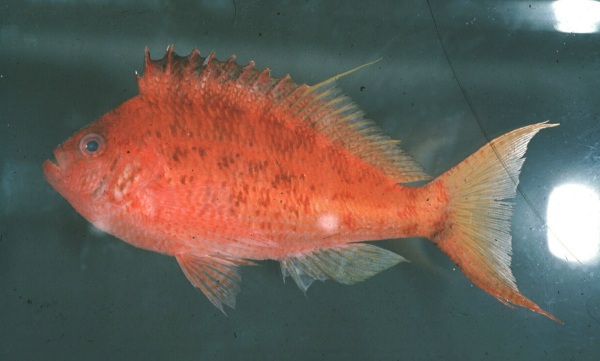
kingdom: Animalia
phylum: Chordata
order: Perciformes
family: Cirrhitidae
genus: Cyprinocirrhites
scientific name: Cyprinocirrhites polyactis
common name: Swallowtail hawkfish
